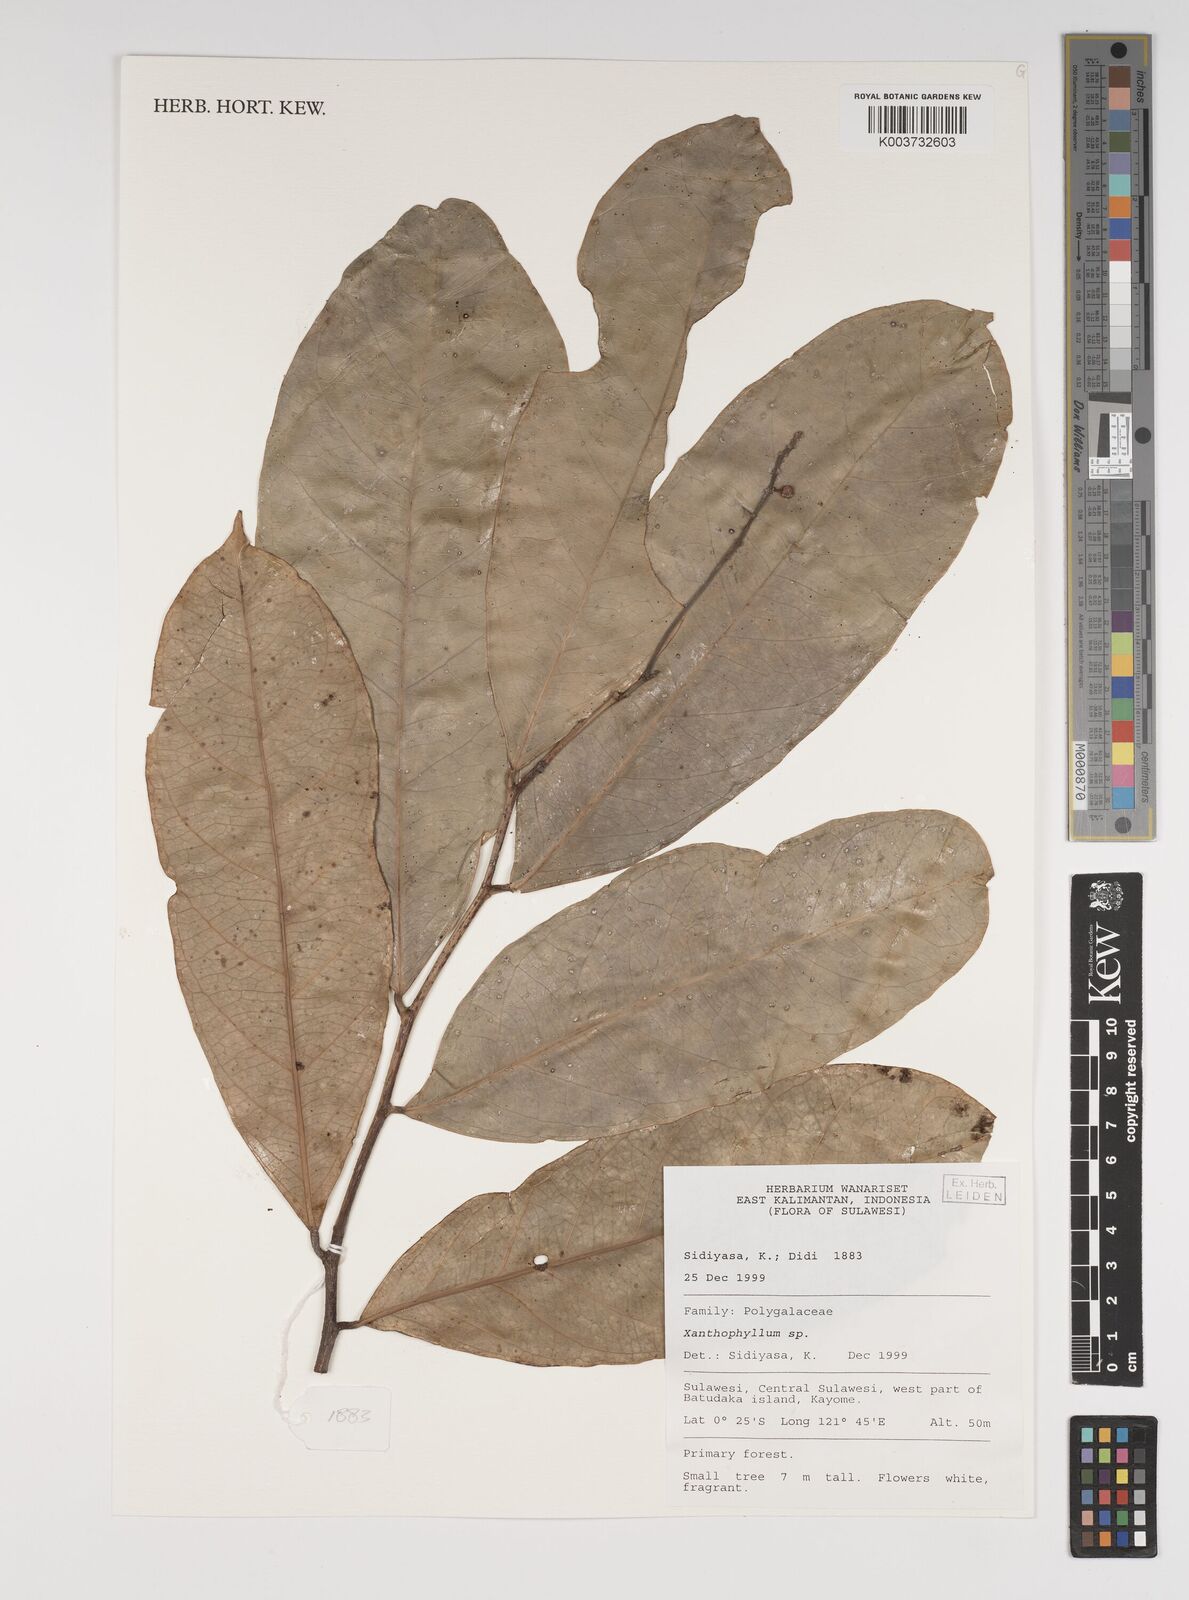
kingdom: Plantae
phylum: Tracheophyta
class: Magnoliopsida
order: Fabales
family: Polygalaceae
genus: Xanthophyllum
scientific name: Xanthophyllum
